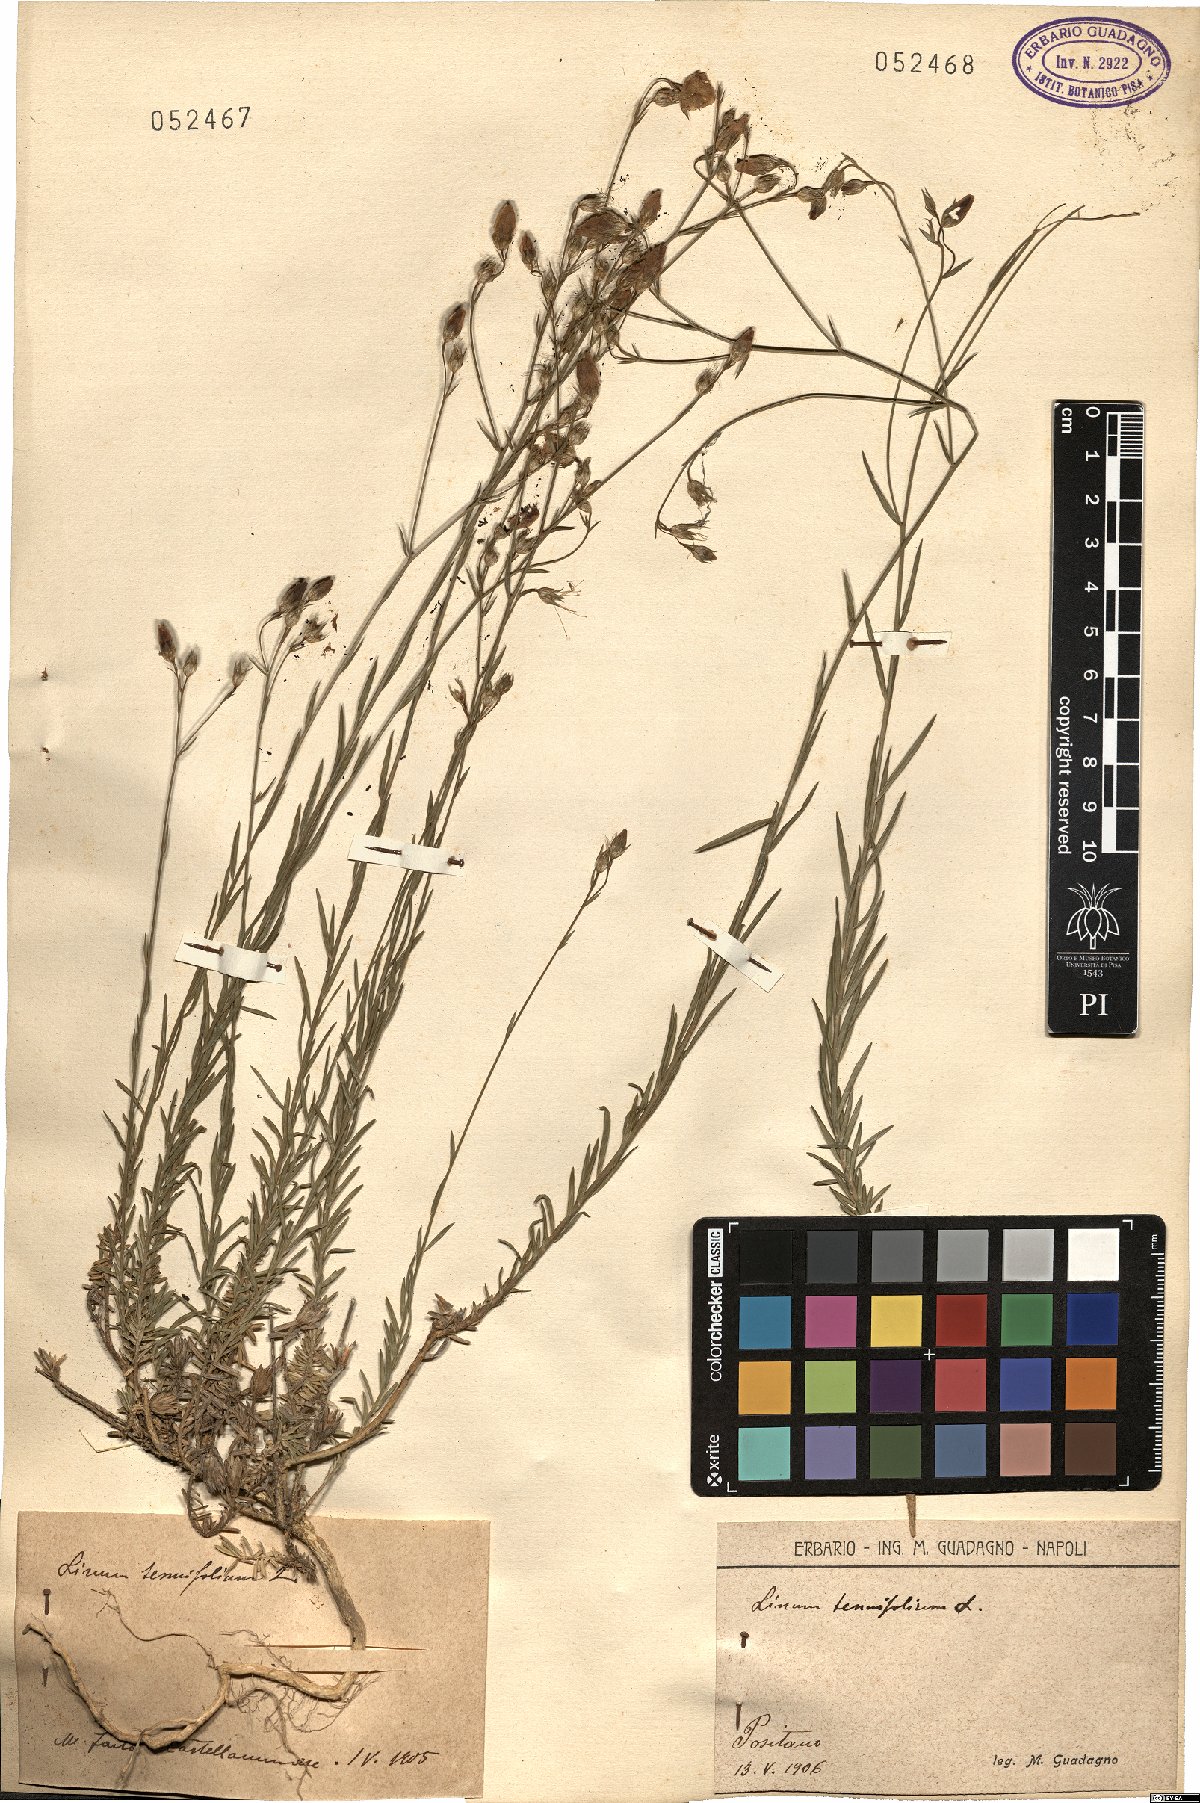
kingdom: Plantae
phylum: Tracheophyta
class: Magnoliopsida
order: Malpighiales
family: Linaceae
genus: Linum
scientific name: Linum tenuifolium
